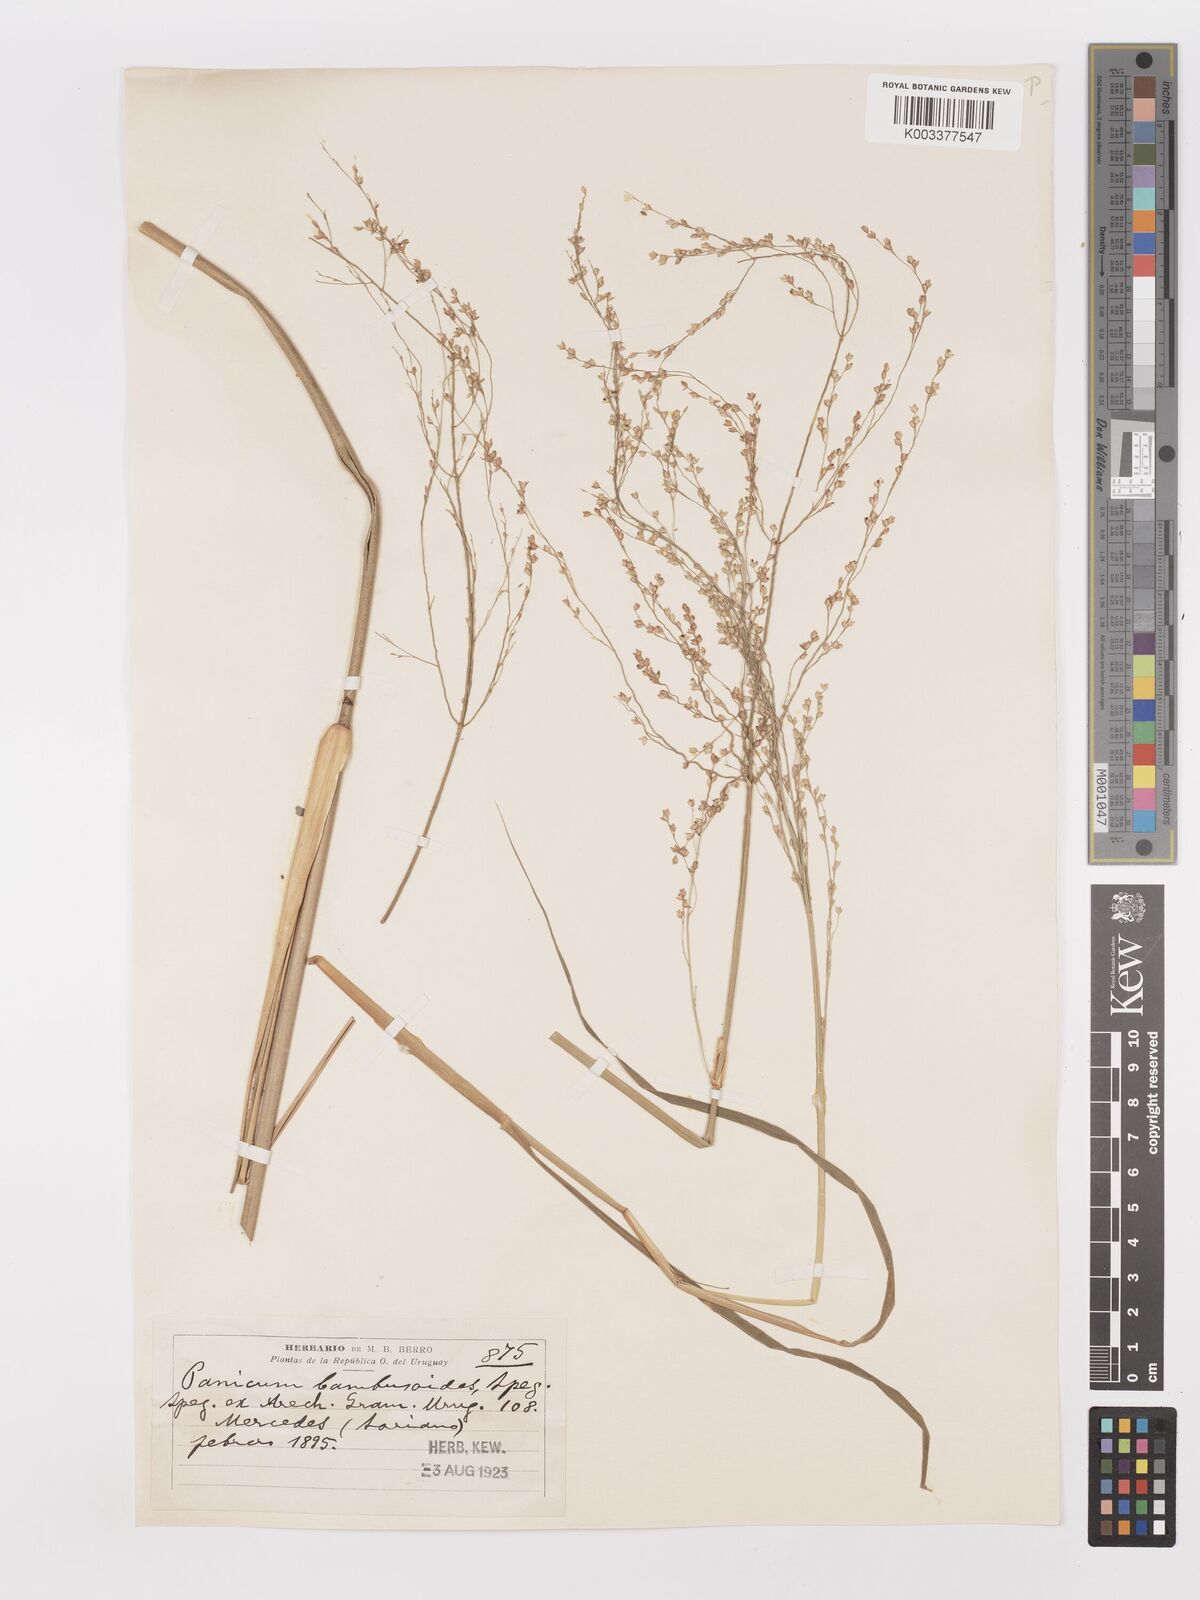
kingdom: Plantae
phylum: Tracheophyta
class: Liliopsida
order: Poales
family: Poaceae
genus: Panicum
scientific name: Panicum tricholaenoides
